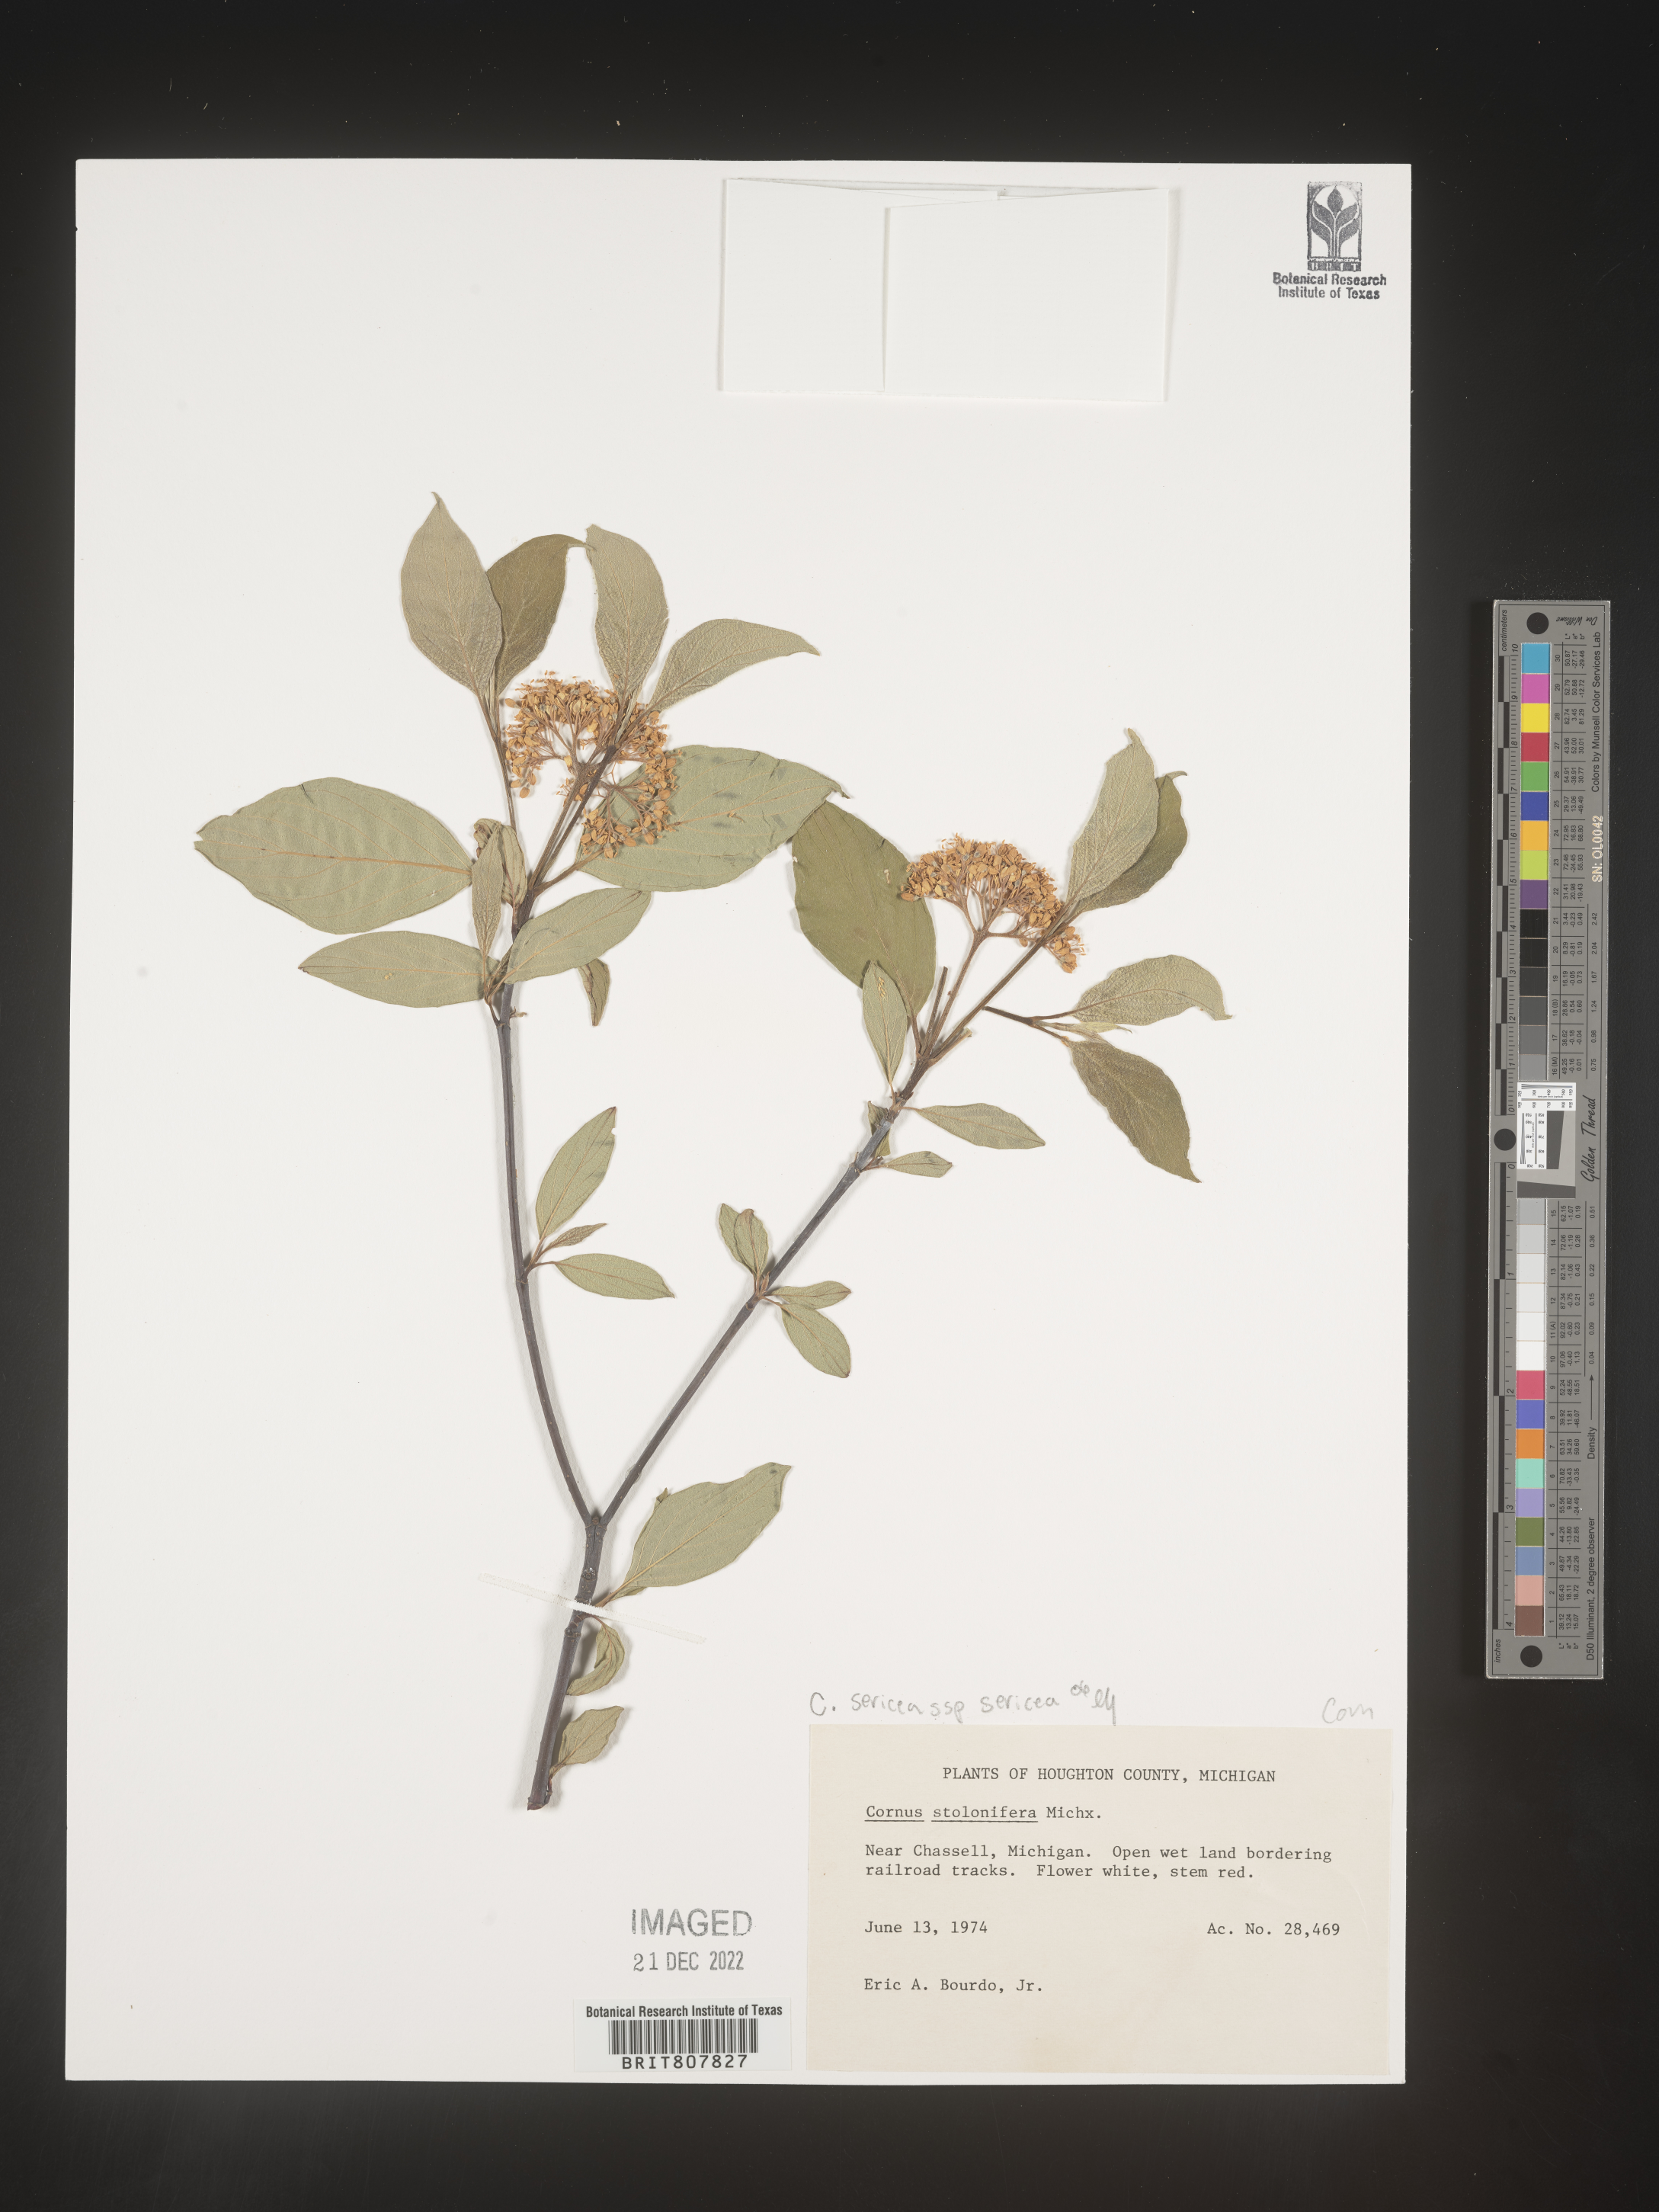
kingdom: Plantae
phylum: Tracheophyta
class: Magnoliopsida
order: Cornales
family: Cornaceae
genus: Cornus
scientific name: Cornus
